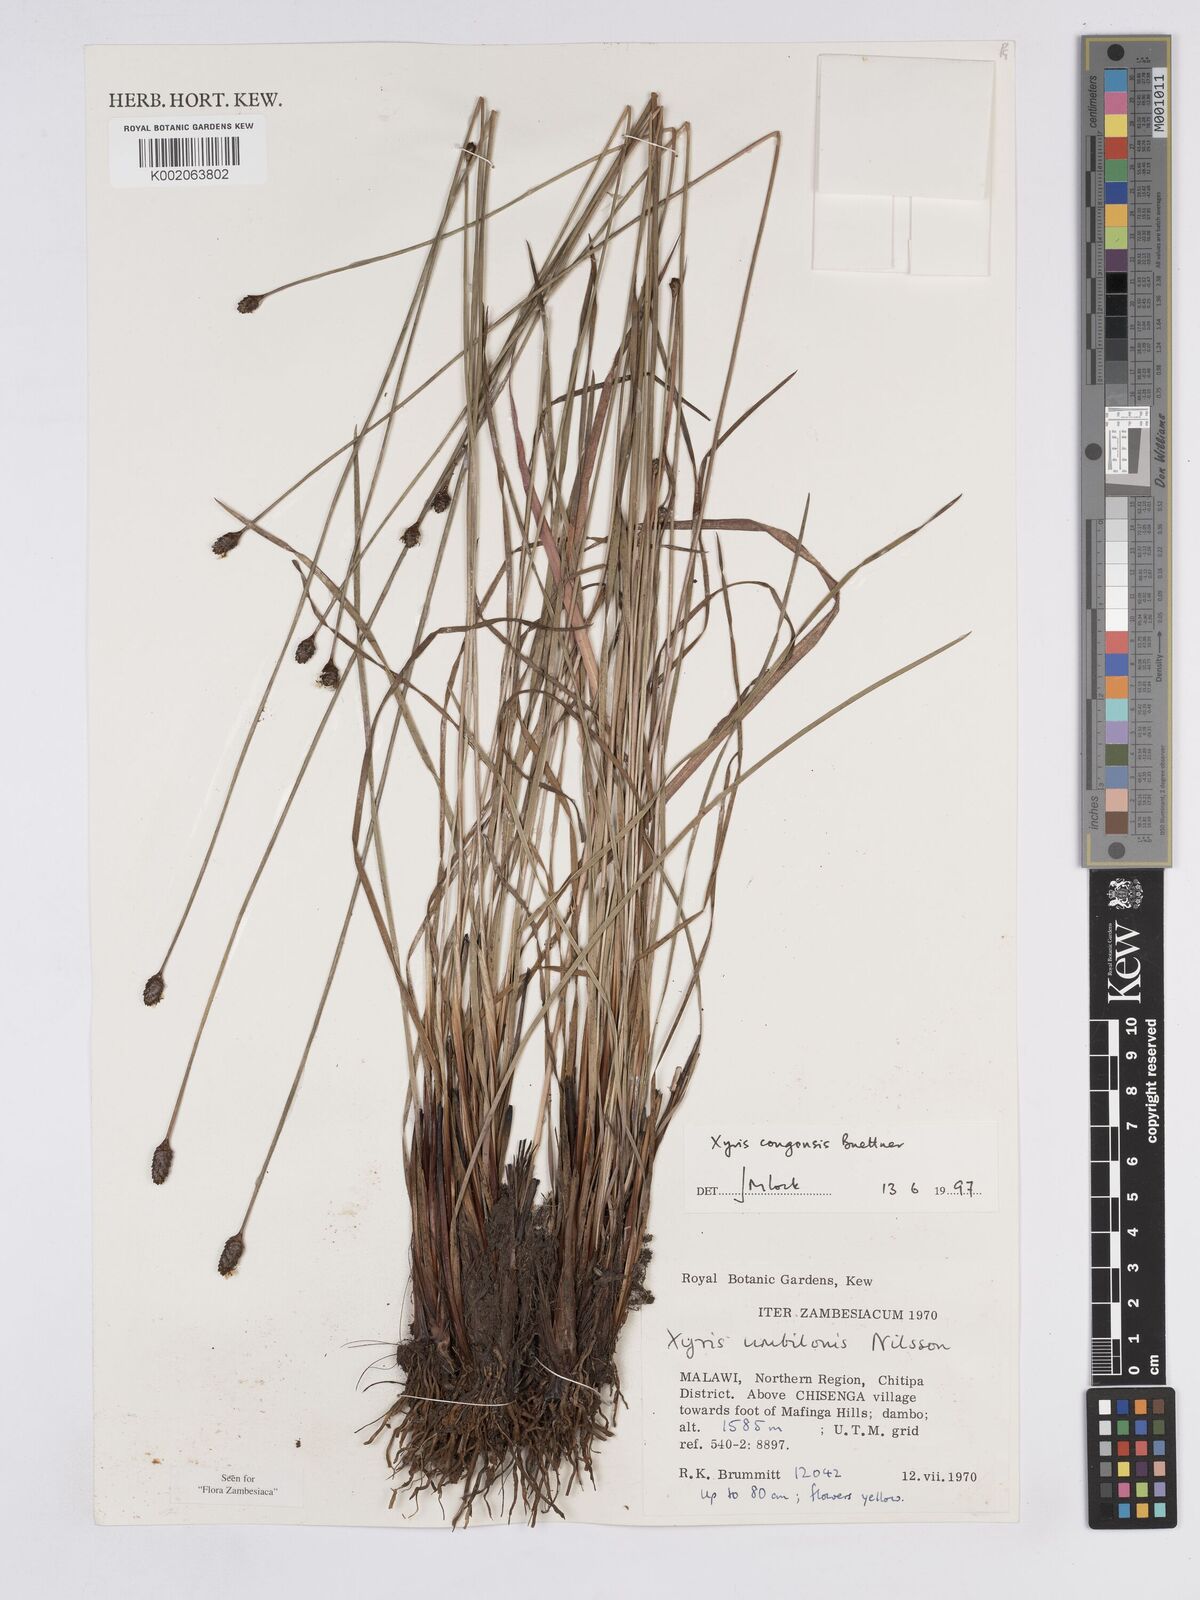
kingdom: Plantae
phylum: Tracheophyta
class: Liliopsida
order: Poales
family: Xyridaceae
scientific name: Xyridaceae
